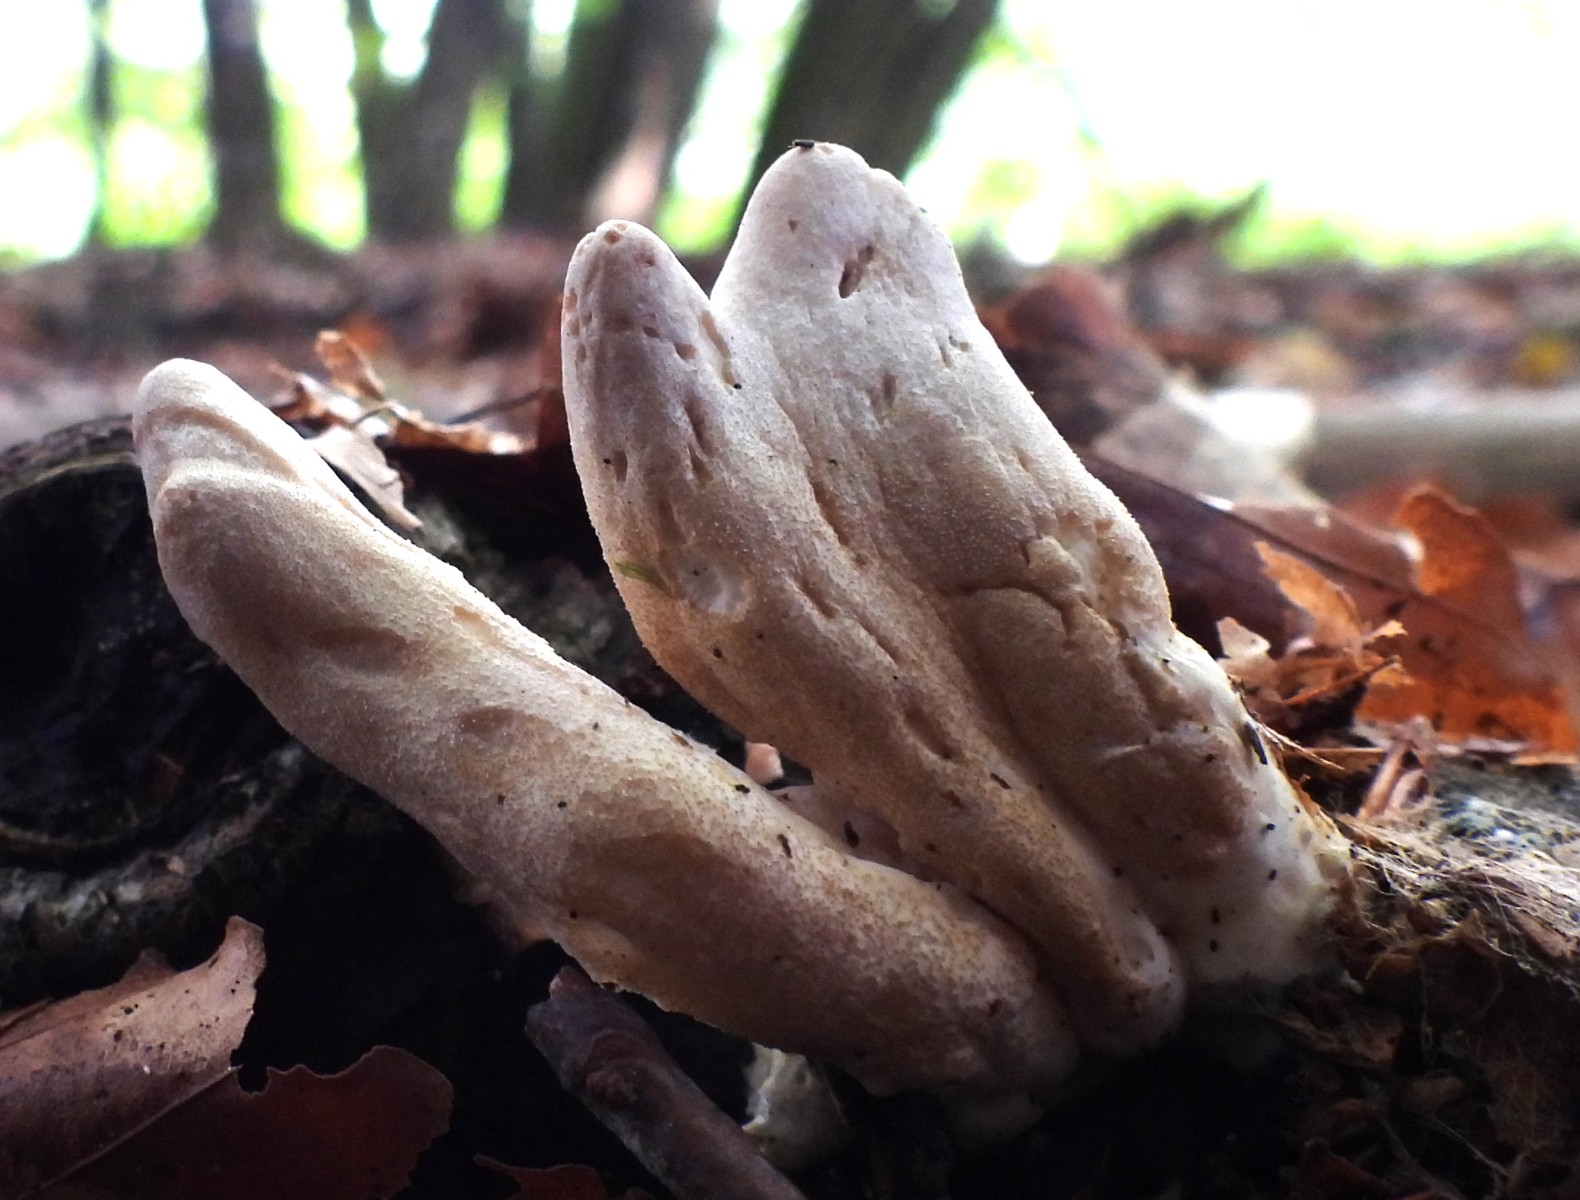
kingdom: Fungi
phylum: Ascomycota
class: Sordariomycetes
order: Hypocreales
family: Hypocreaceae
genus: Trichoderma
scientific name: Trichoderma alutaceum
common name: gevir-kødkerne
